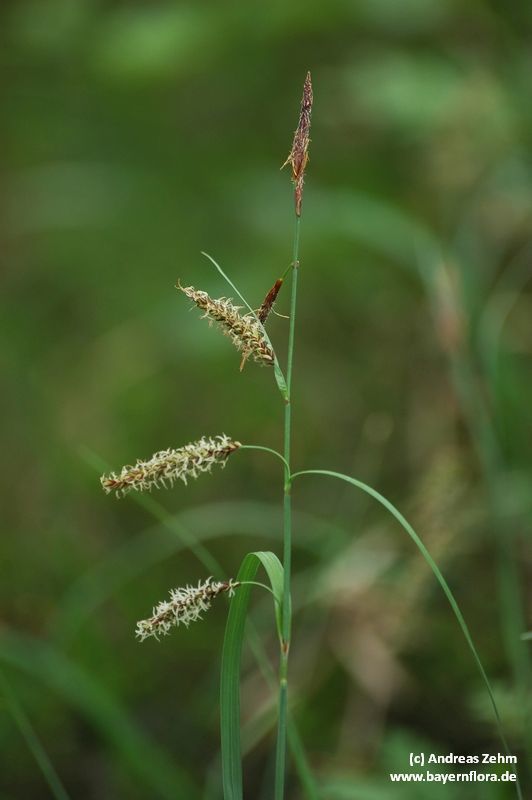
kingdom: Plantae
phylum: Tracheophyta
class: Liliopsida
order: Poales
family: Cyperaceae
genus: Carex
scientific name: Carex flacca
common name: Glaucous sedge
